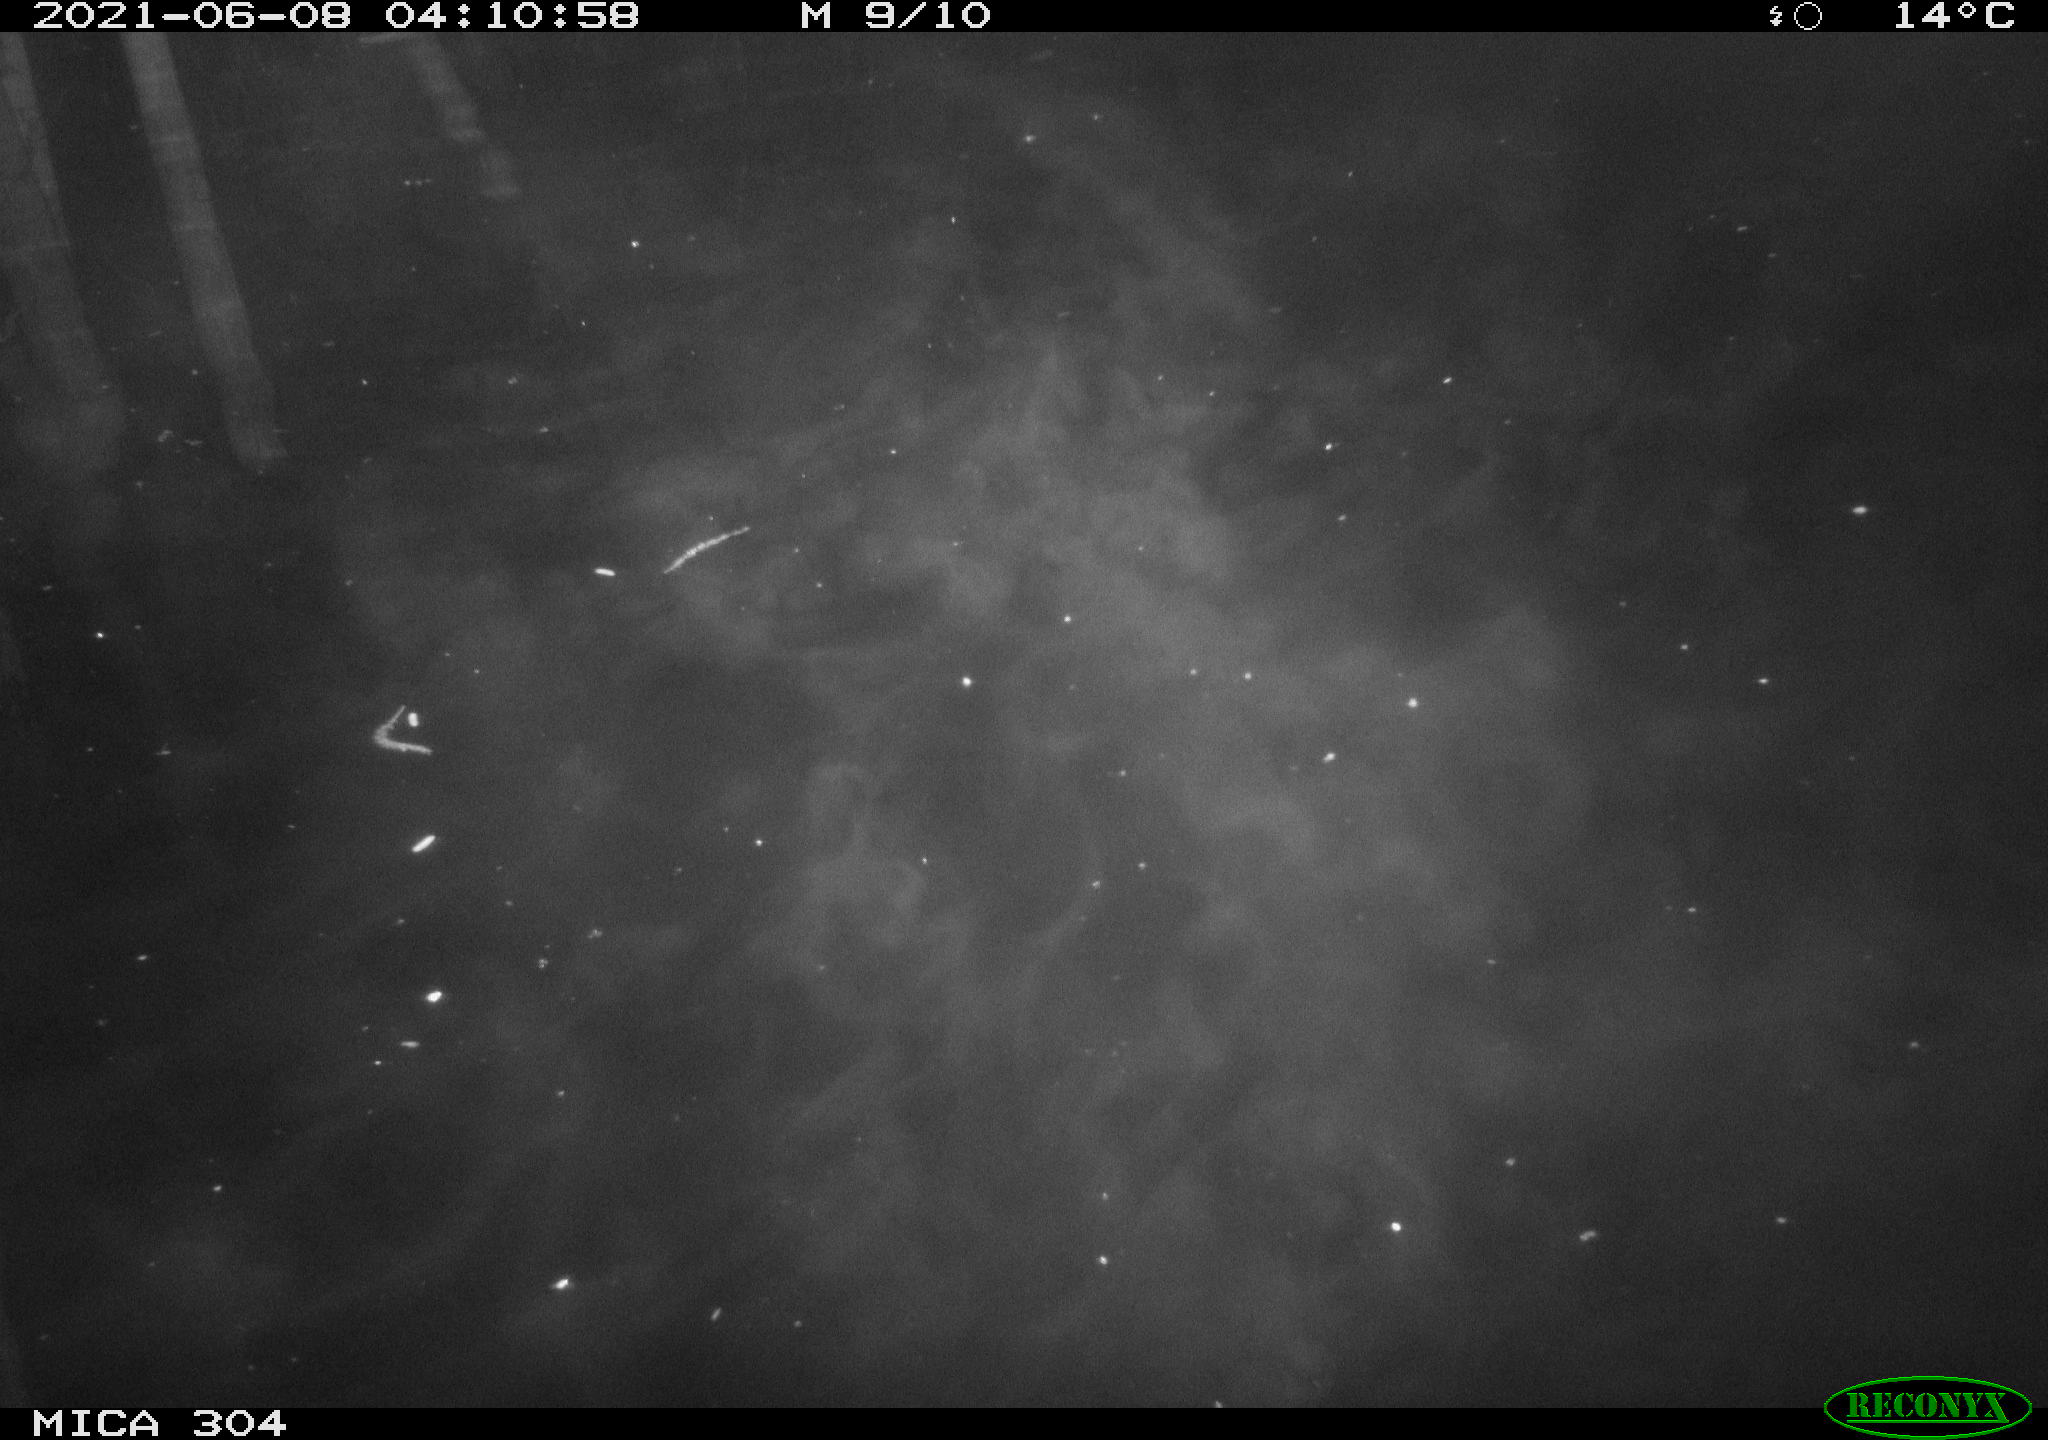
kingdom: Animalia
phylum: Chordata
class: Aves
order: Anseriformes
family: Anatidae
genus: Anas
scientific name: Anas platyrhynchos
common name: Mallard
